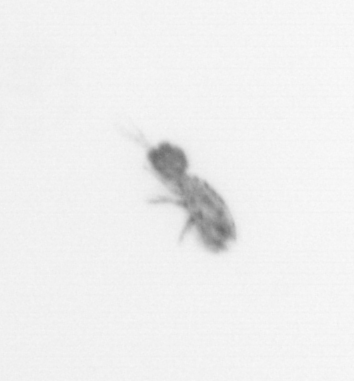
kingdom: Animalia
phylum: Arthropoda
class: Copepoda
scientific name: Copepoda
